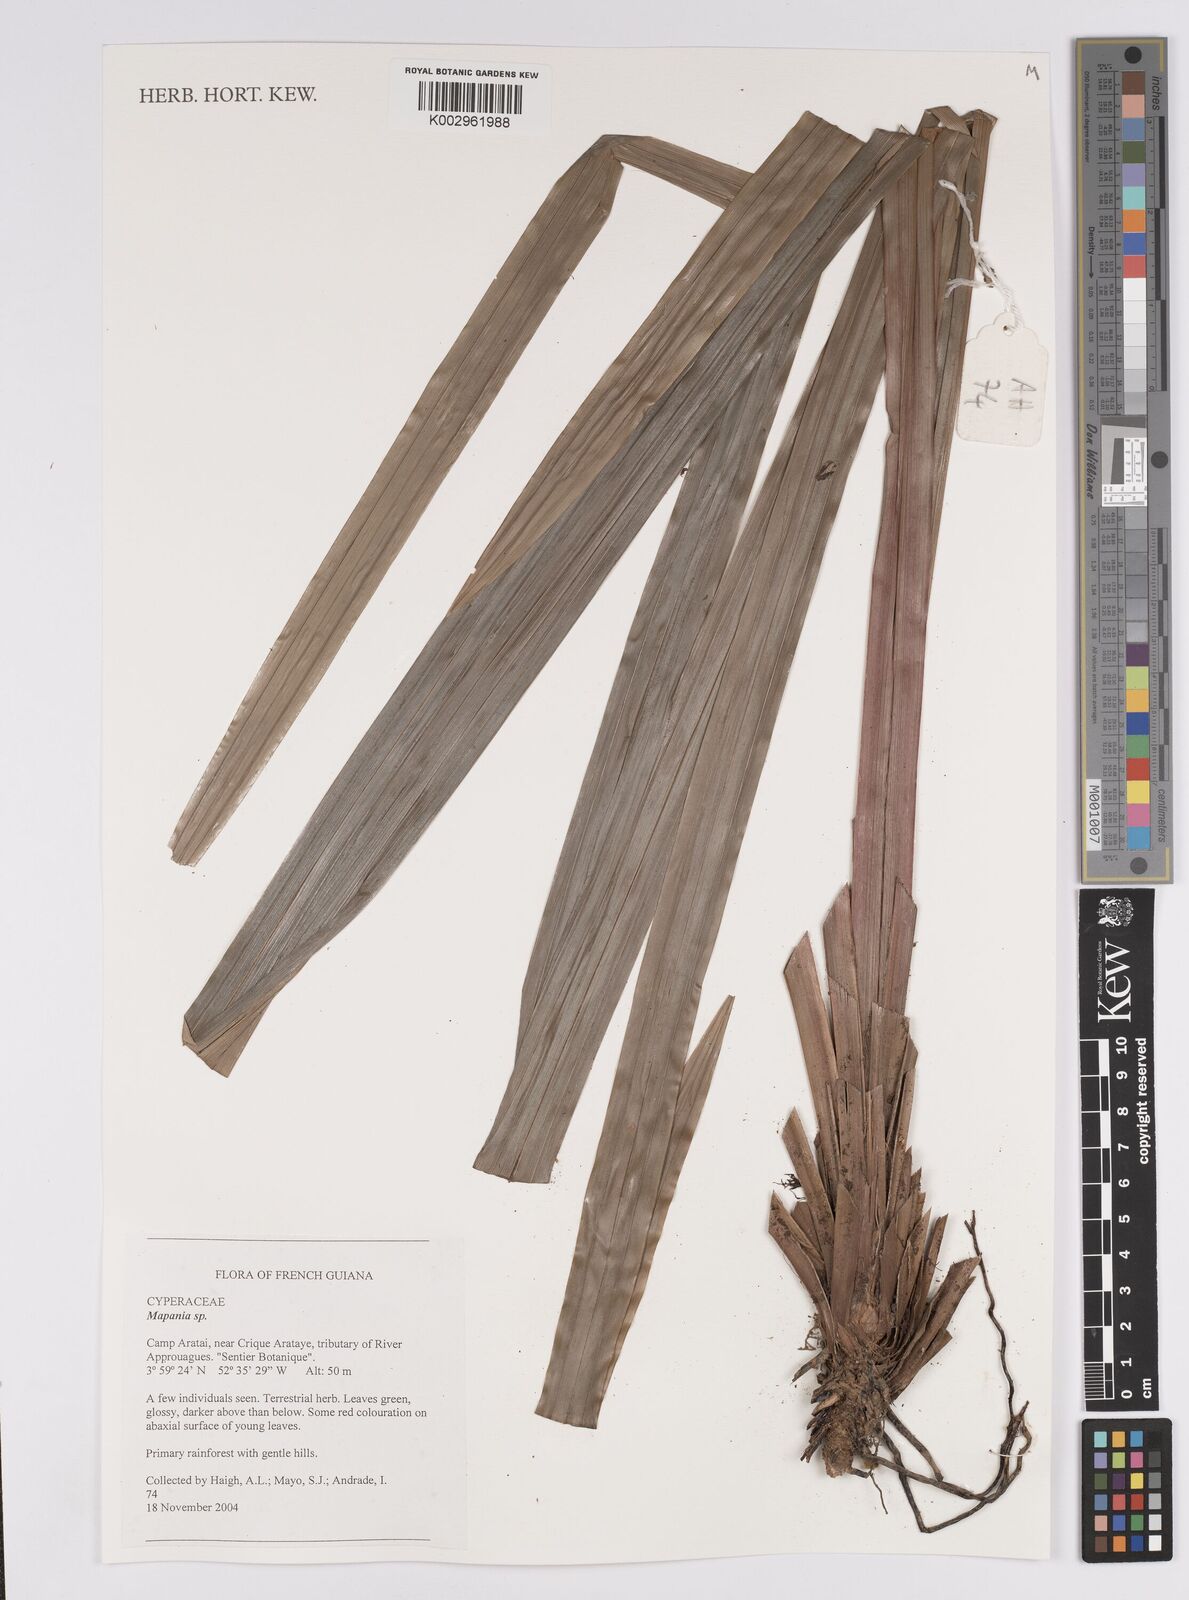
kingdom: Plantae
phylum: Tracheophyta
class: Liliopsida
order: Poales
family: Cyperaceae
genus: Mapania
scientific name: Mapania
